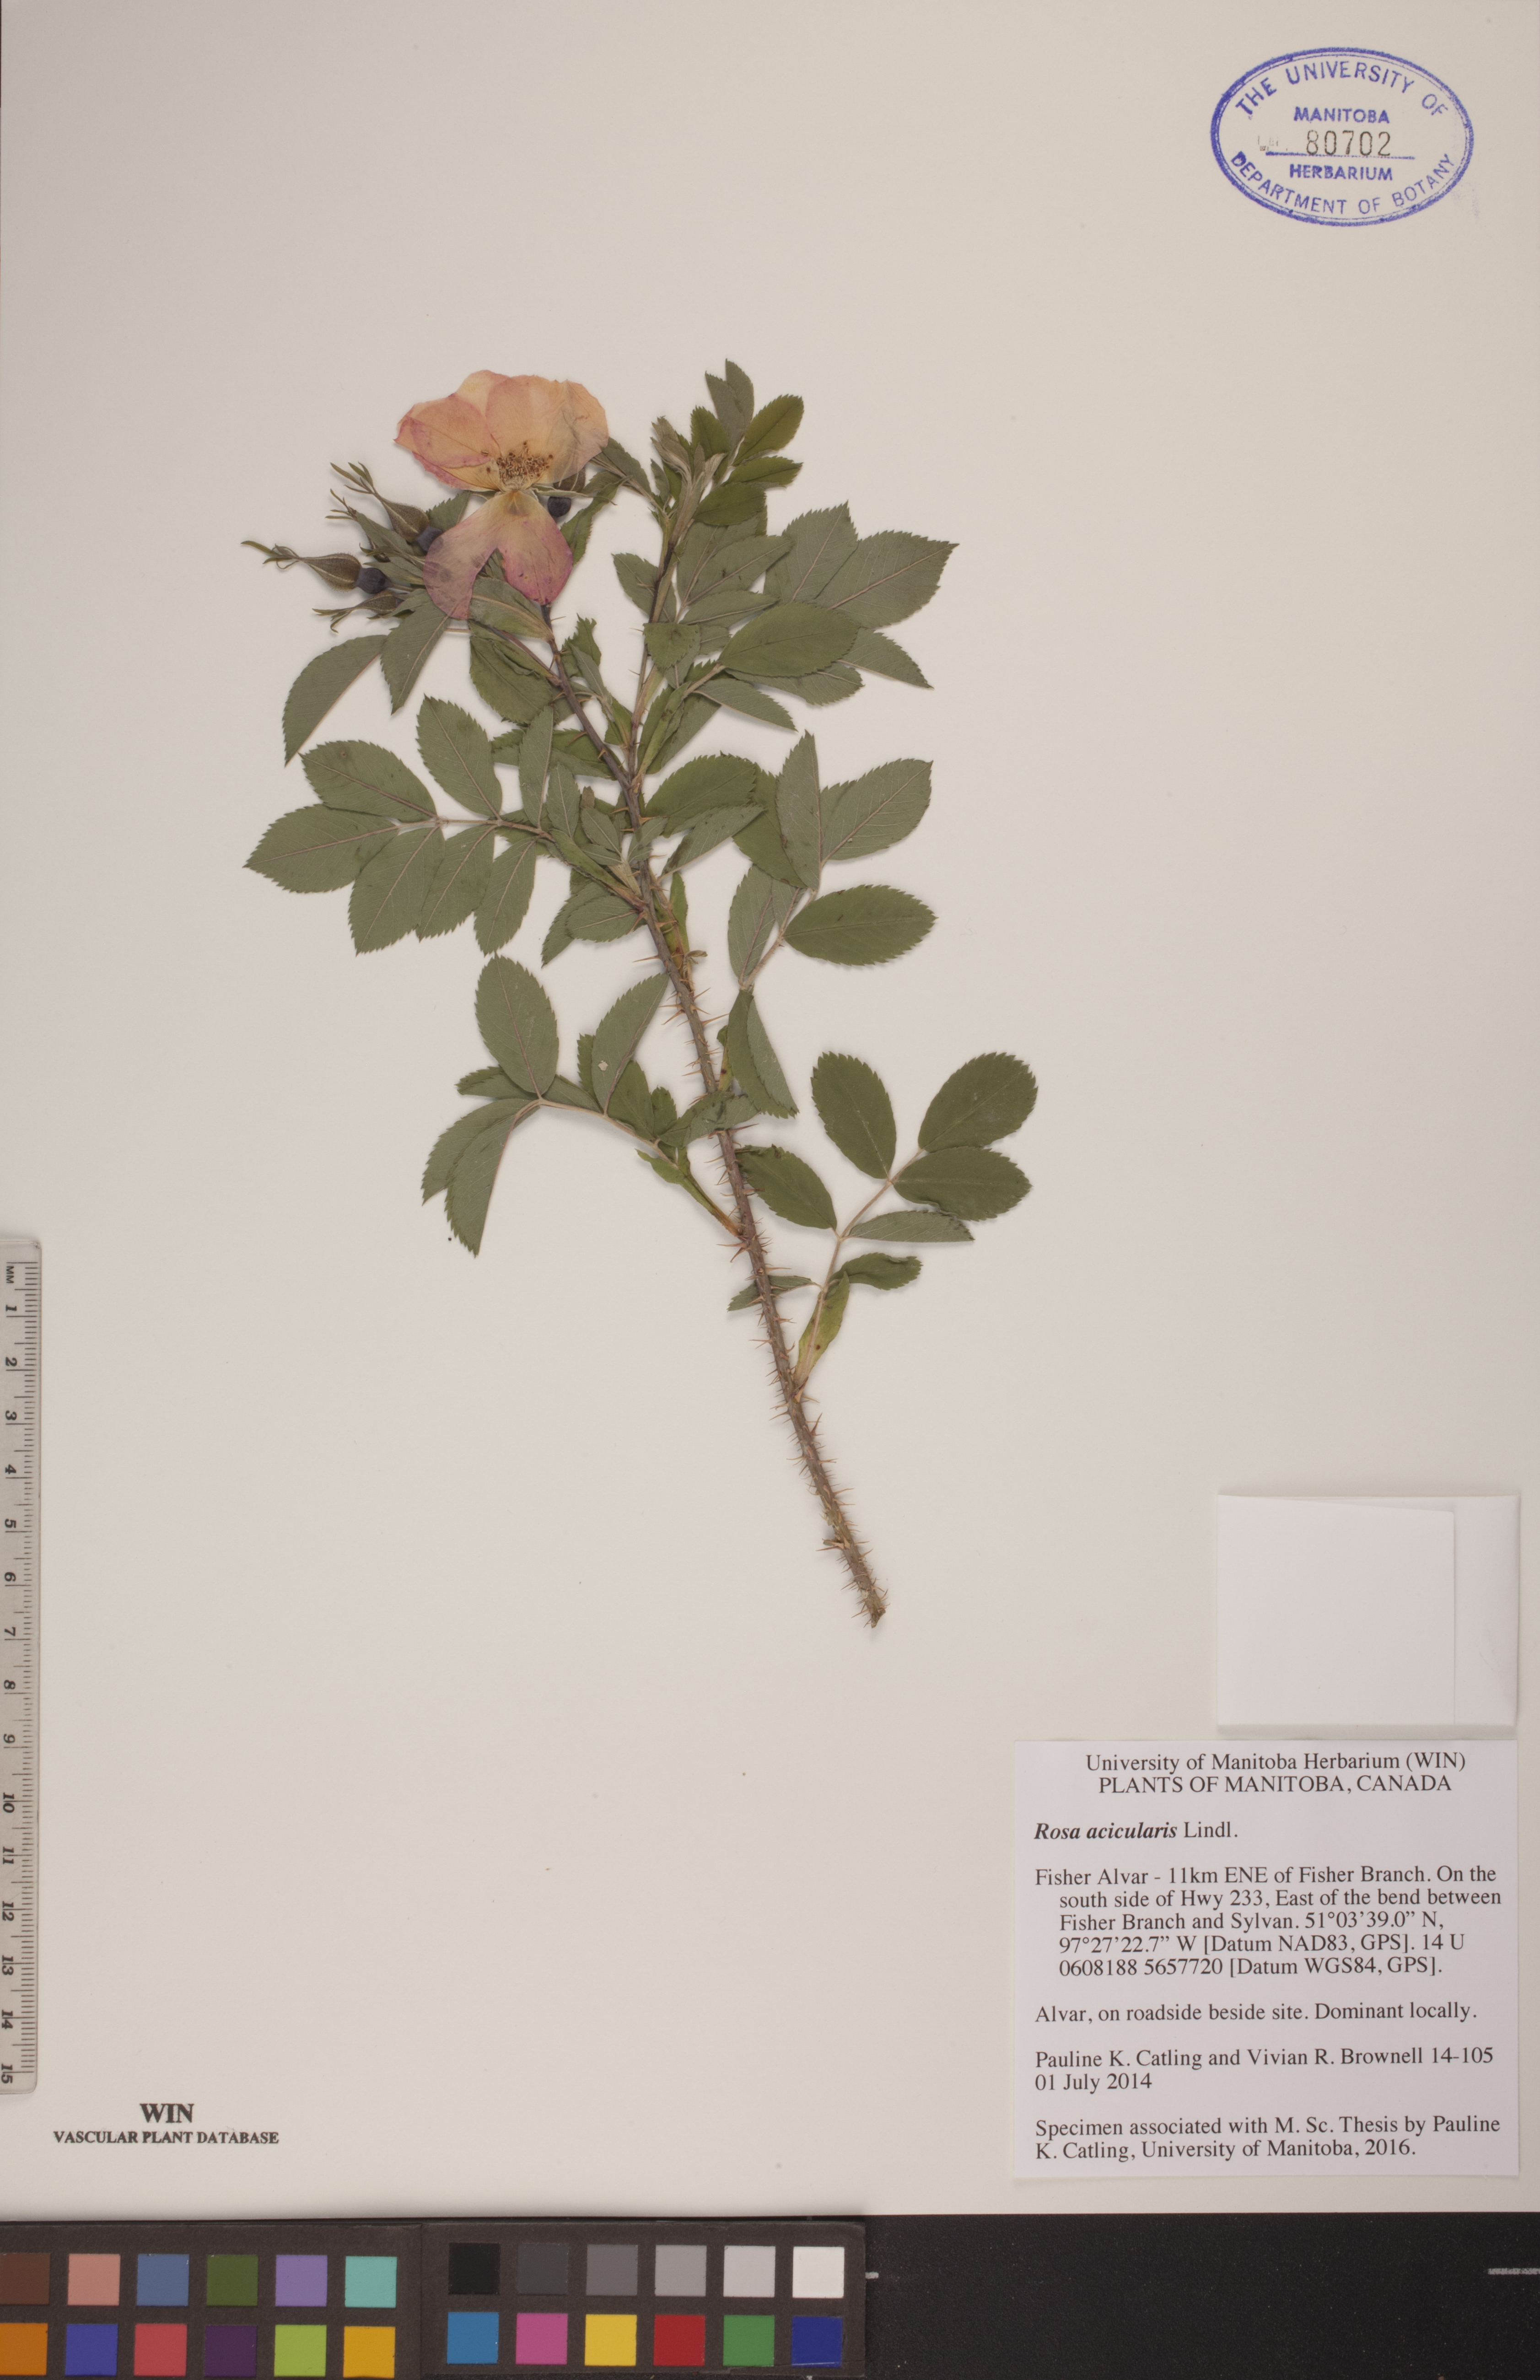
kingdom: Plantae
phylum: Tracheophyta
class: Magnoliopsida
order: Rosales
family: Rosaceae
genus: Rosa
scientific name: Rosa acicularis
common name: Prickly rose
